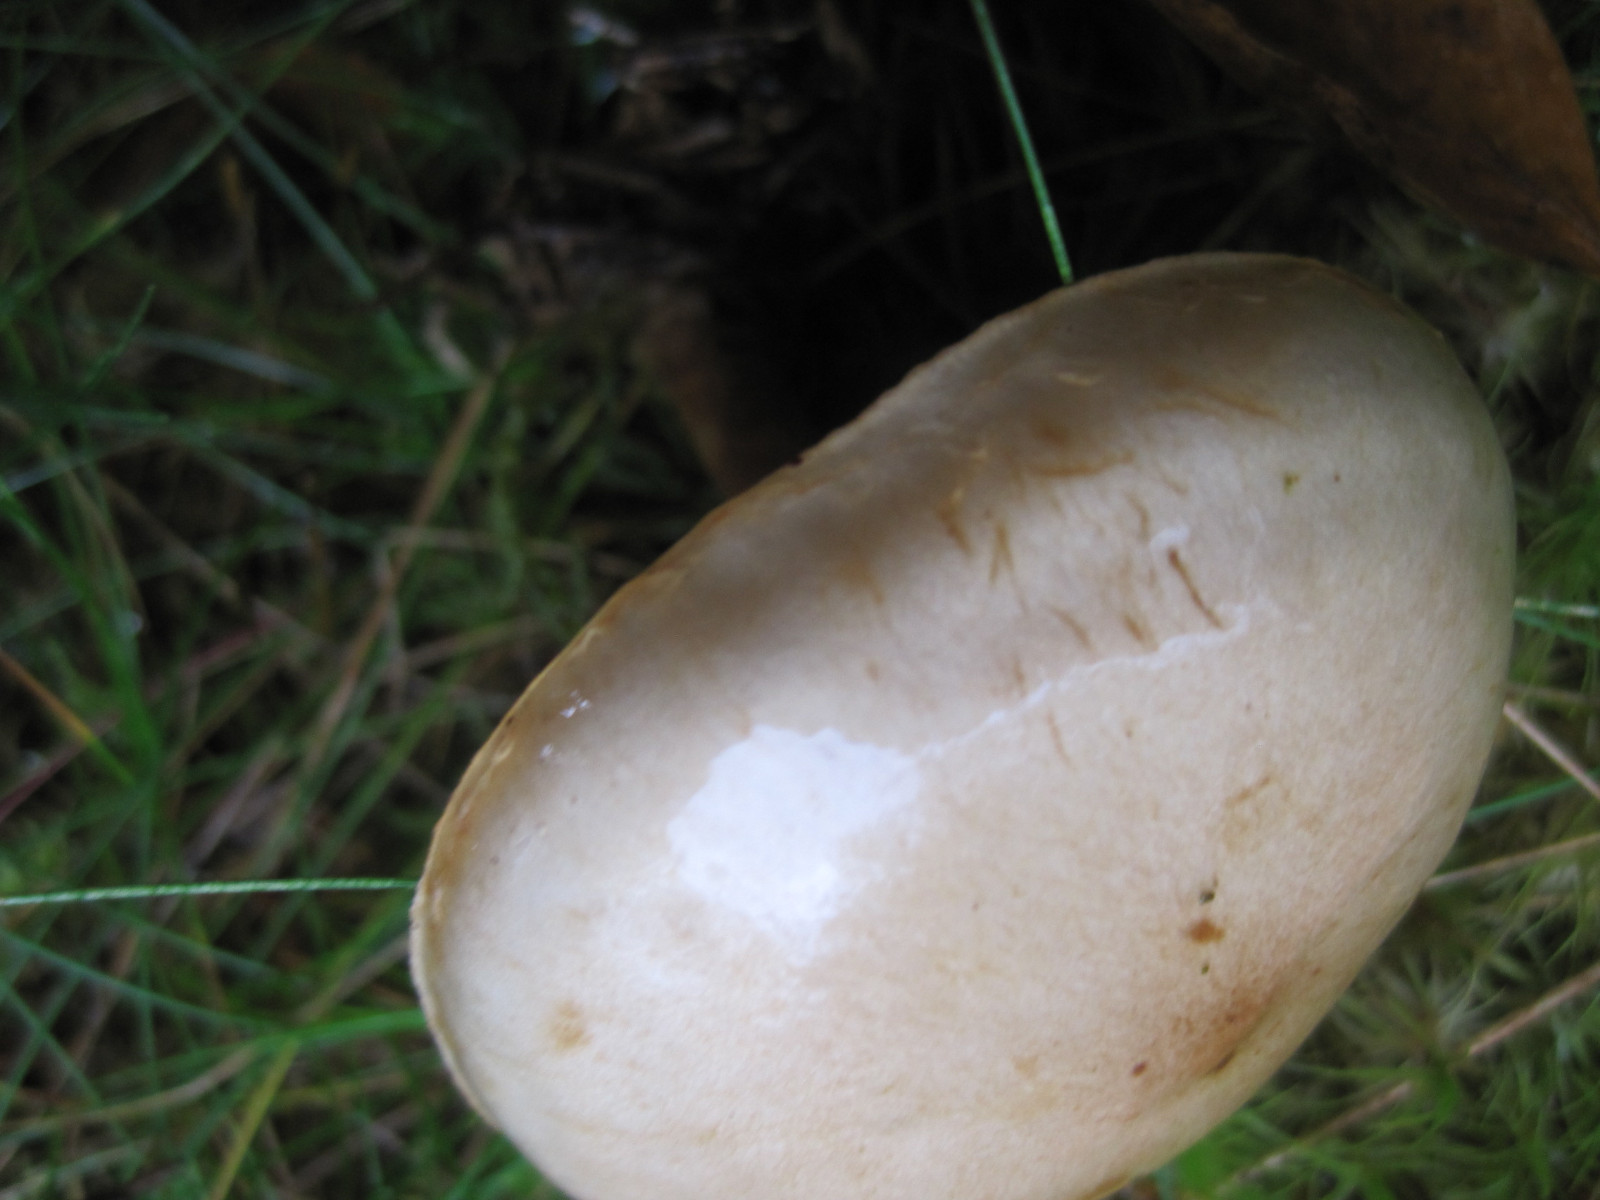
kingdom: Fungi
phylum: Basidiomycota
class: Agaricomycetes
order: Agaricales
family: Strophariaceae
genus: Pholiota
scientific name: Pholiota lenta
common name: løv-skælhat
